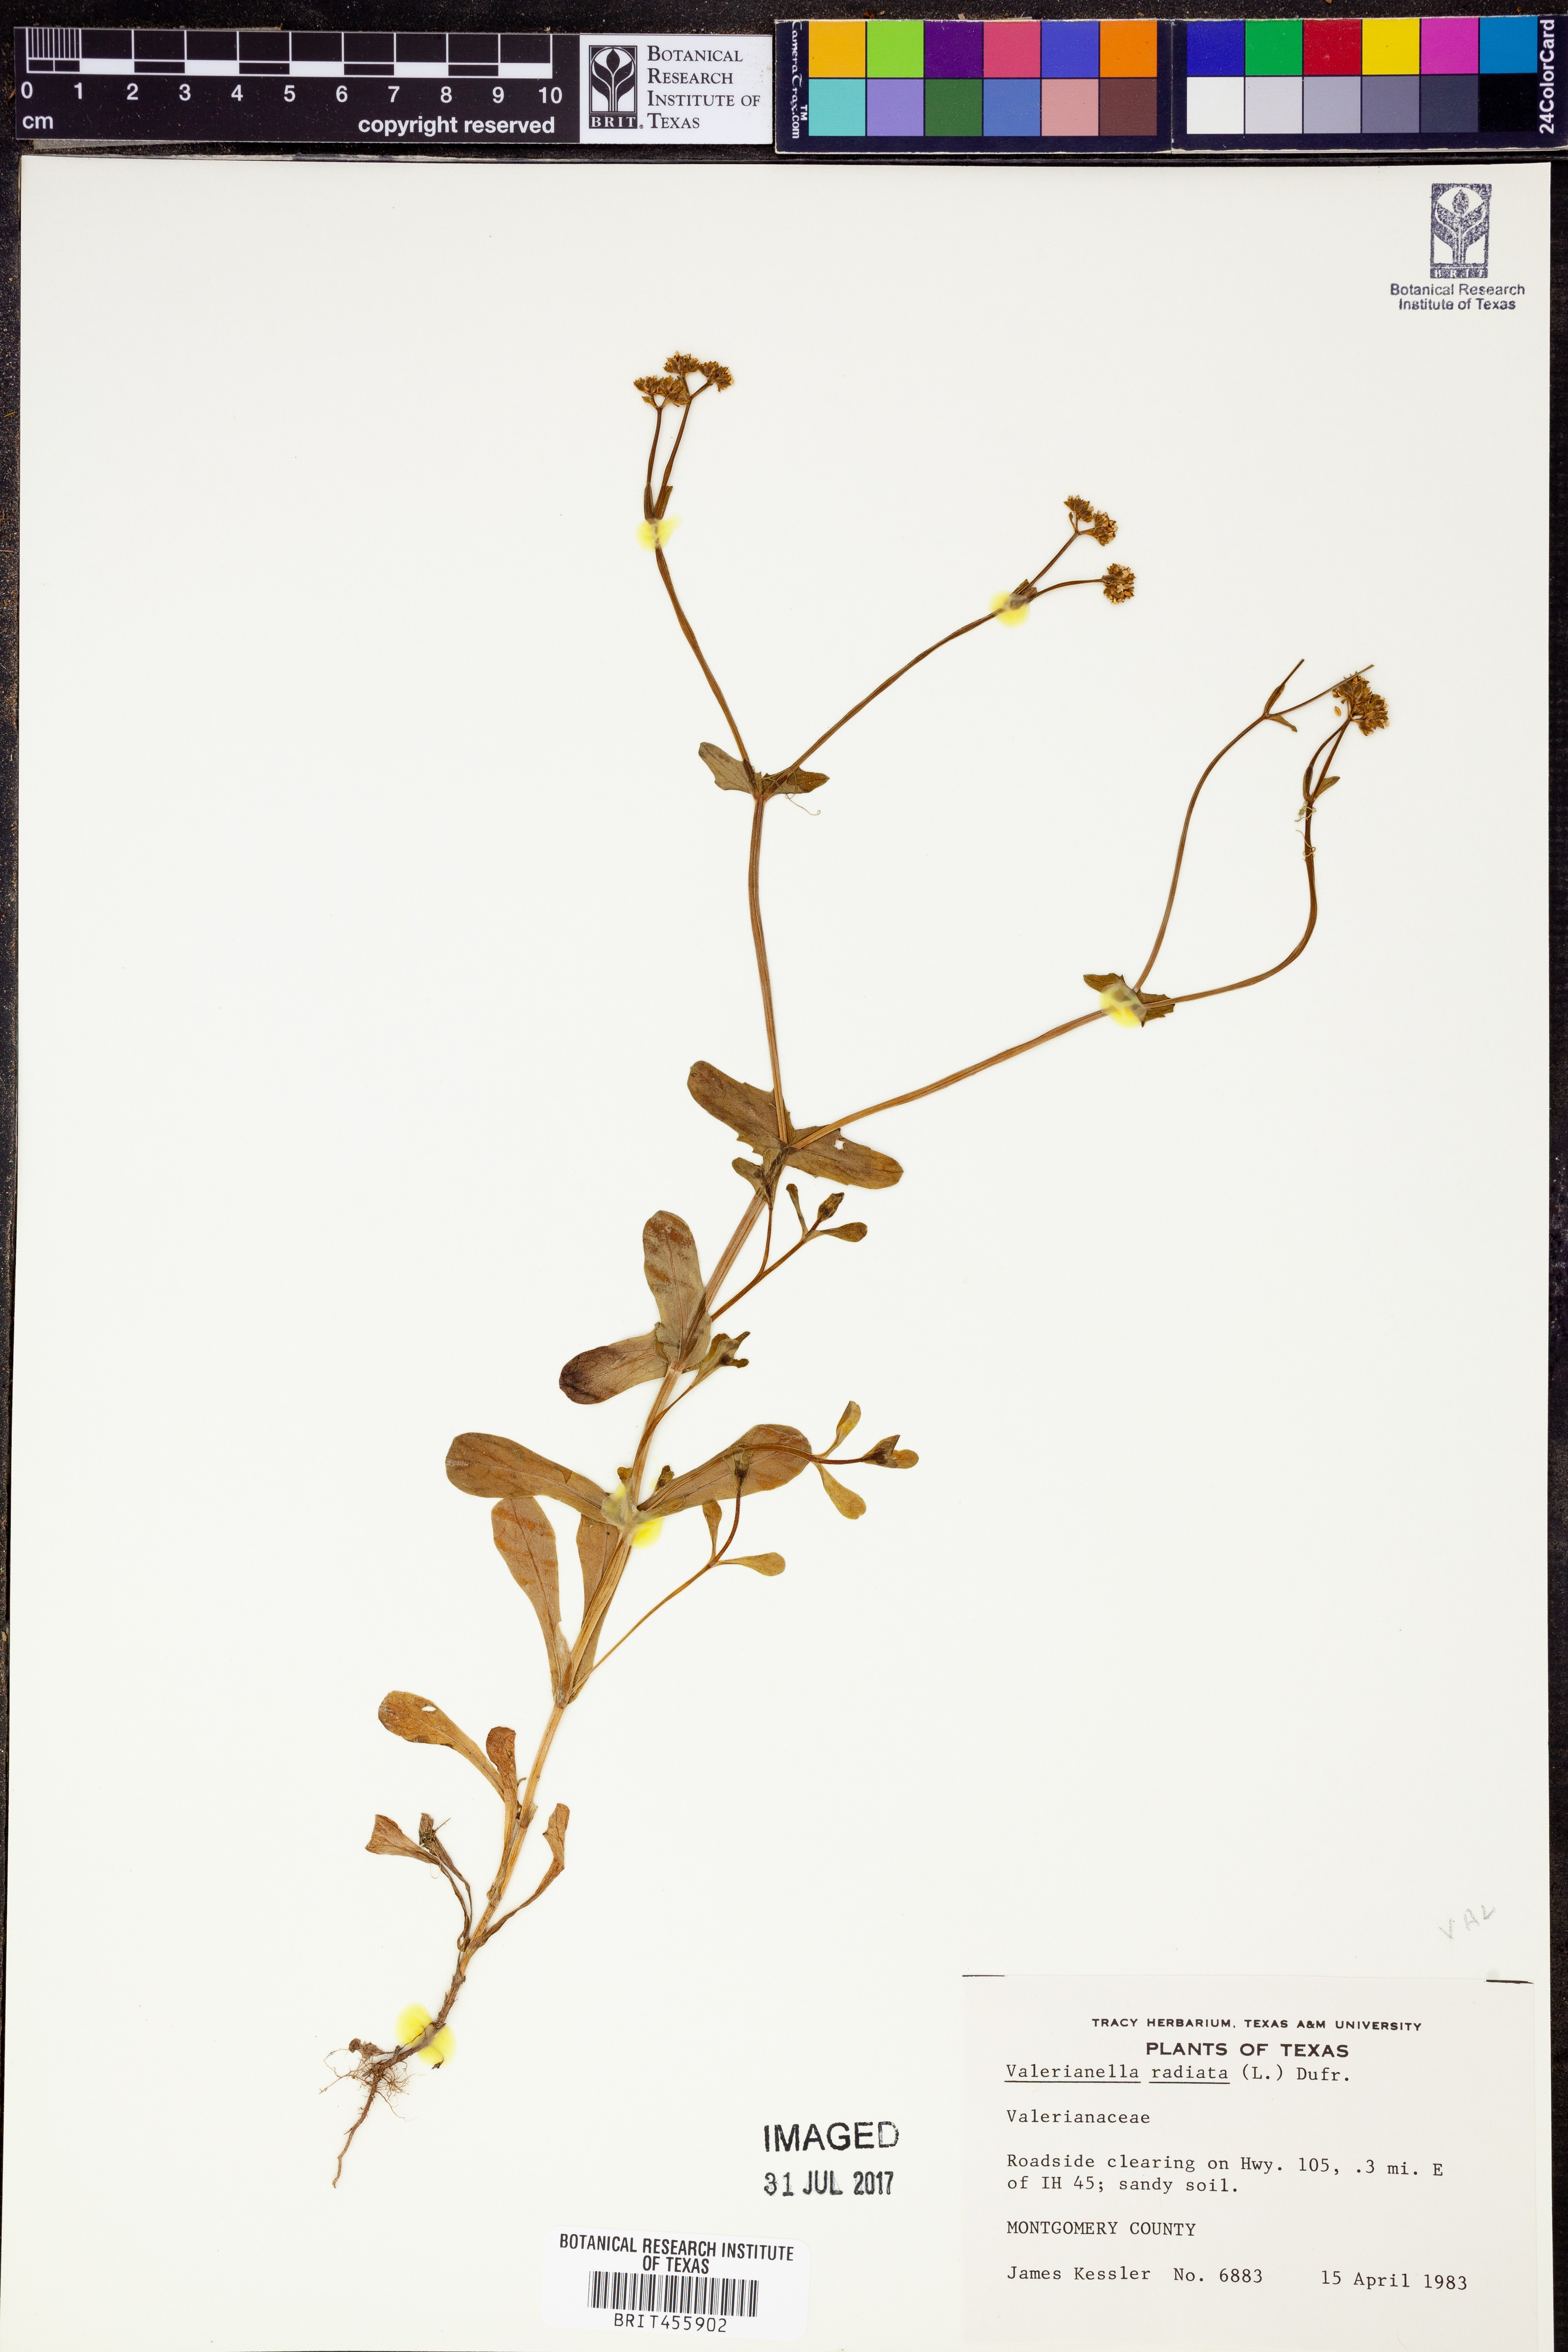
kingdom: Plantae
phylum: Tracheophyta
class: Magnoliopsida
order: Dipsacales
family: Caprifoliaceae
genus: Valerianella
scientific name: Valerianella radiata
